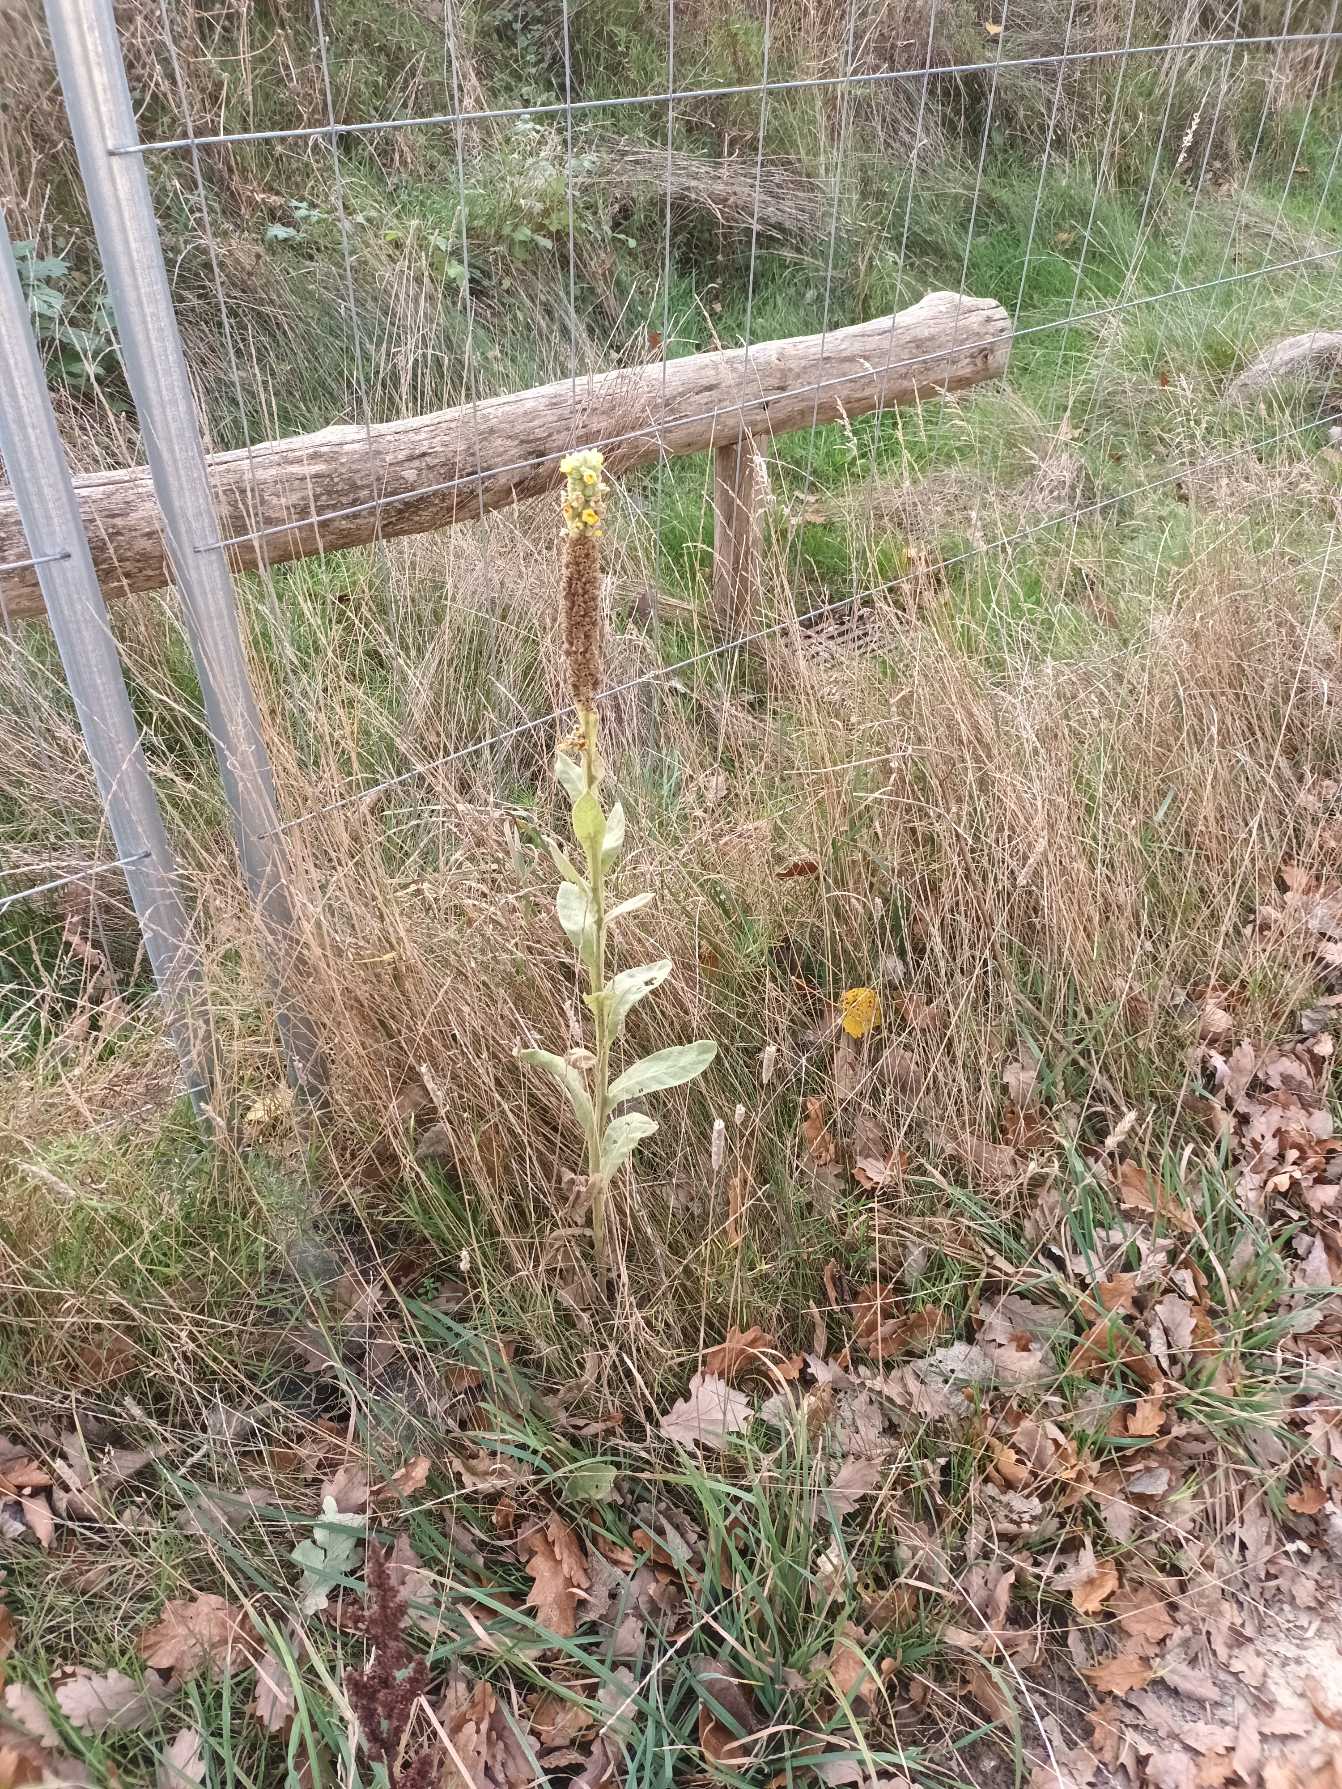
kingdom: Plantae
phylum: Tracheophyta
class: Magnoliopsida
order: Lamiales
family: Scrophulariaceae
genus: Verbascum
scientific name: Verbascum thapsus
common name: Filtbladet kongelys
